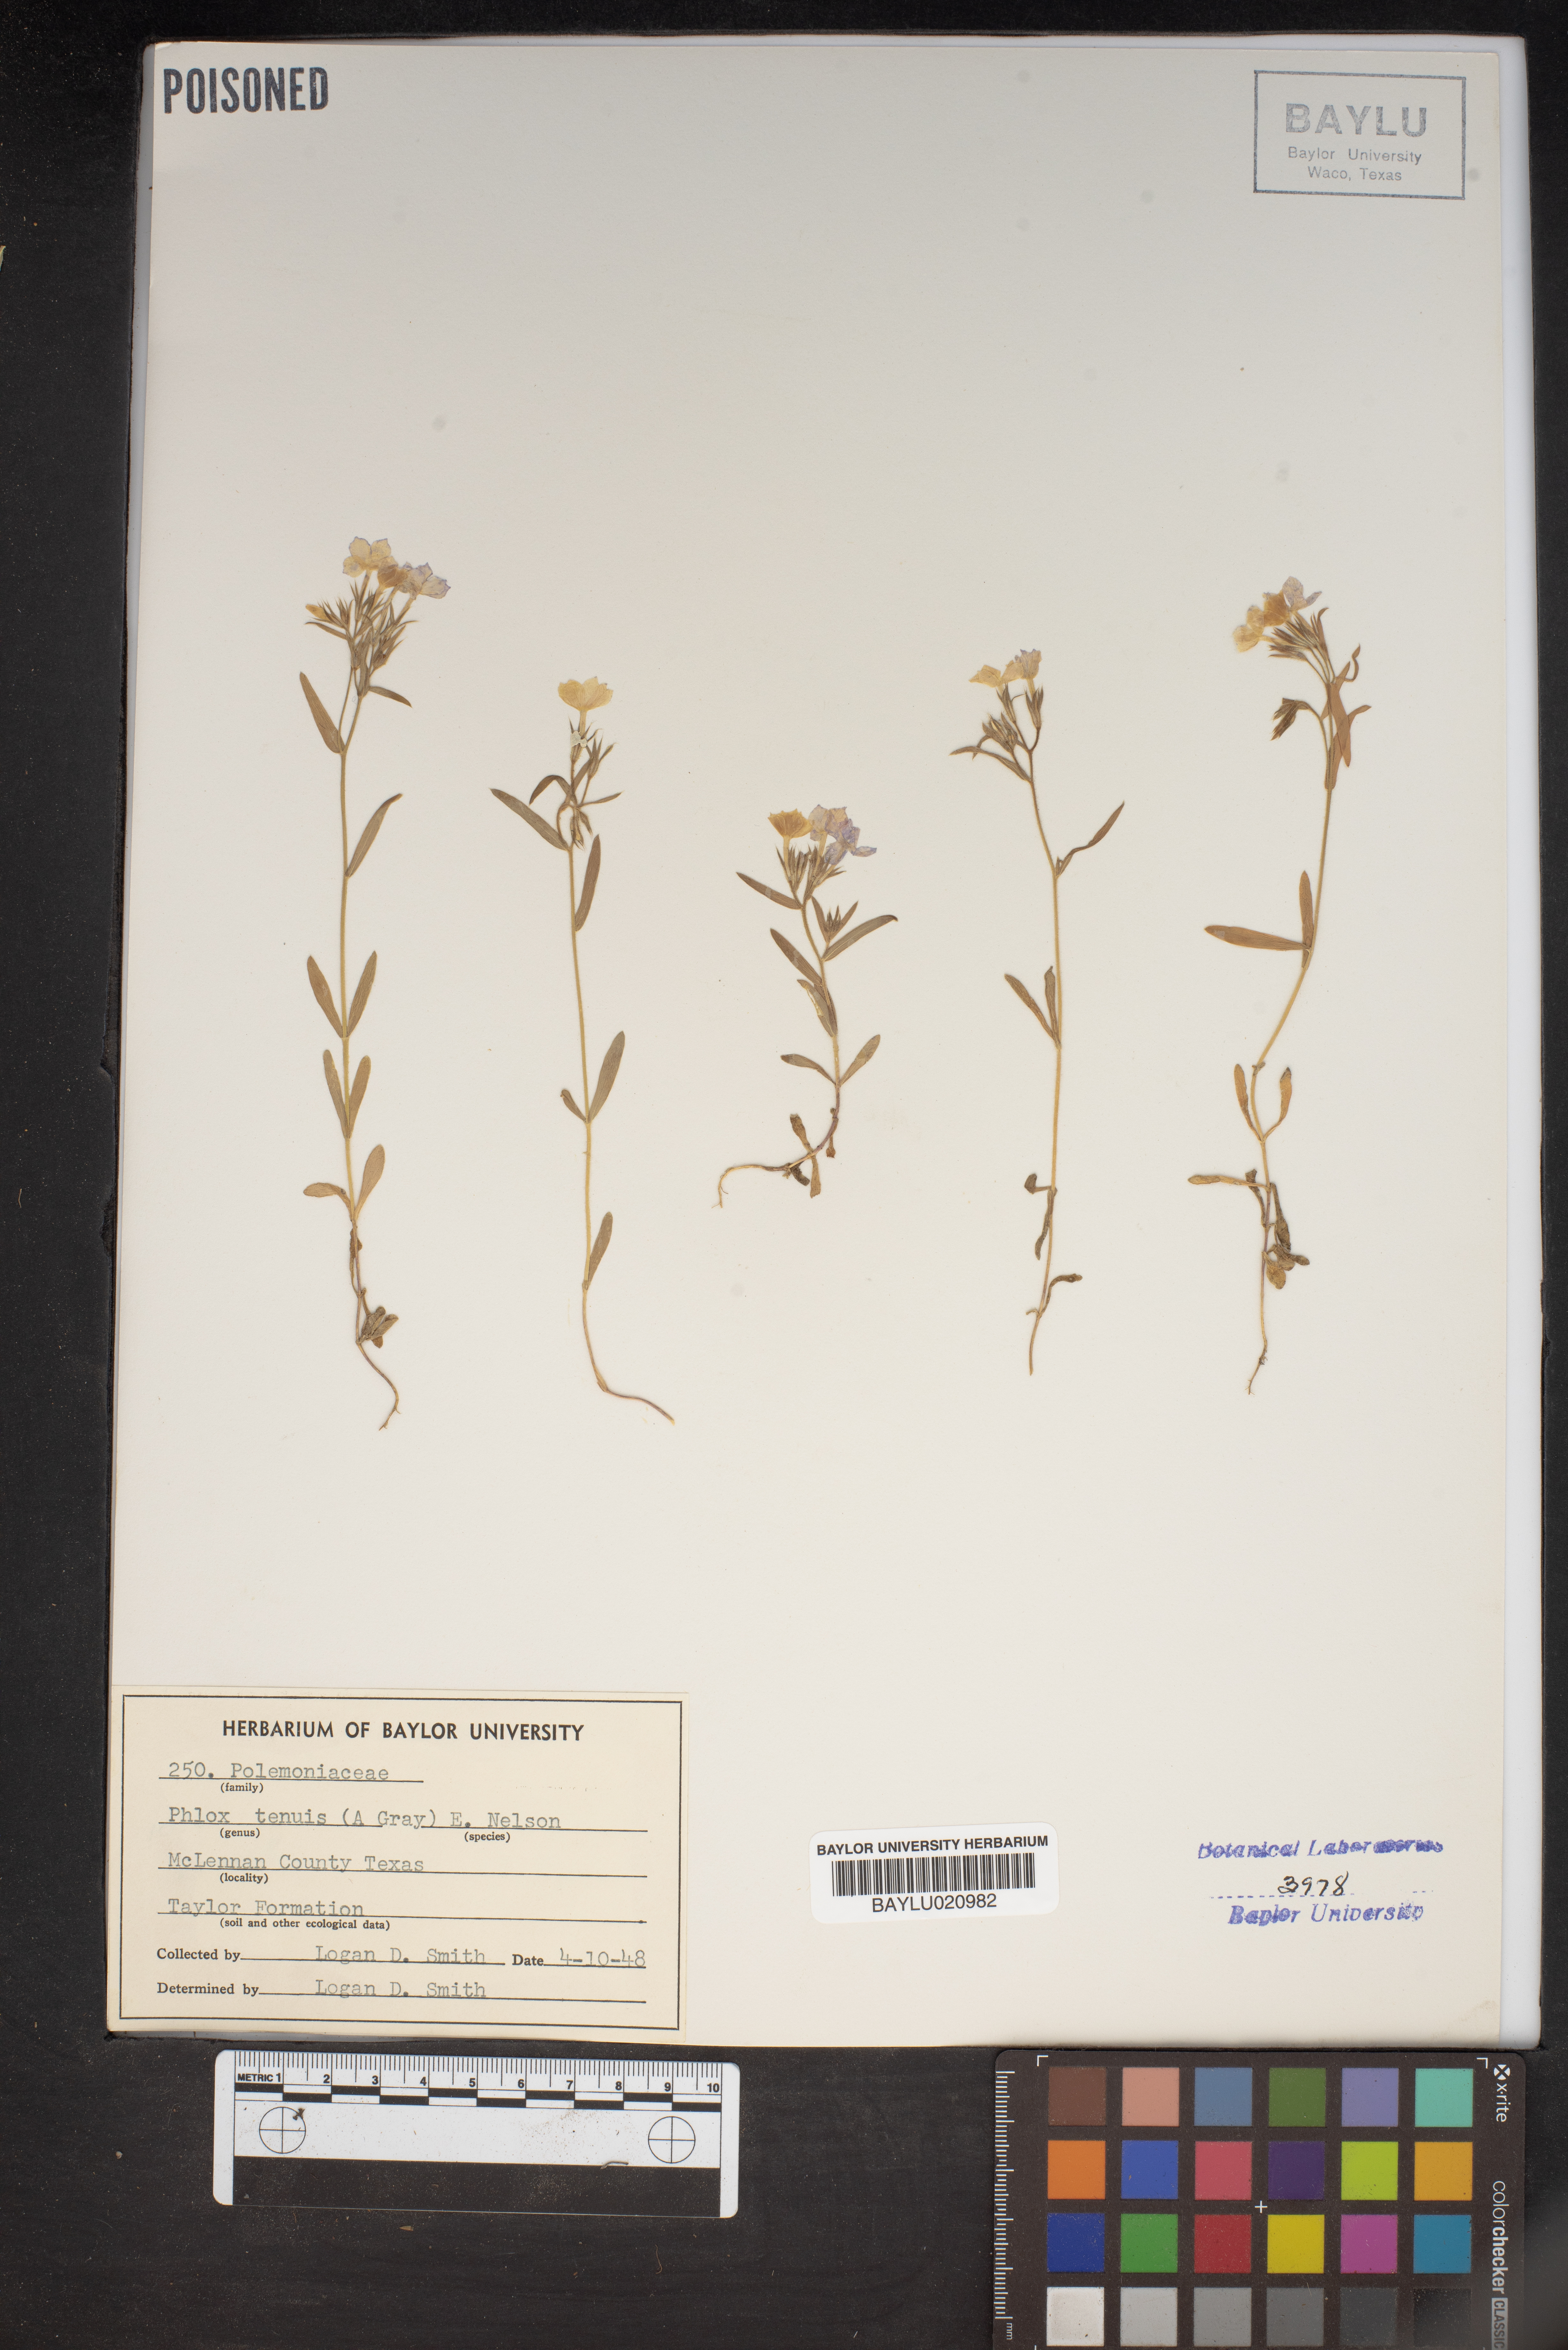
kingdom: Plantae
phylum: Tracheophyta
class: Magnoliopsida
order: Ericales
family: Polemoniaceae
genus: Phlox
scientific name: Phlox longifolia
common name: Longleaf phlox
